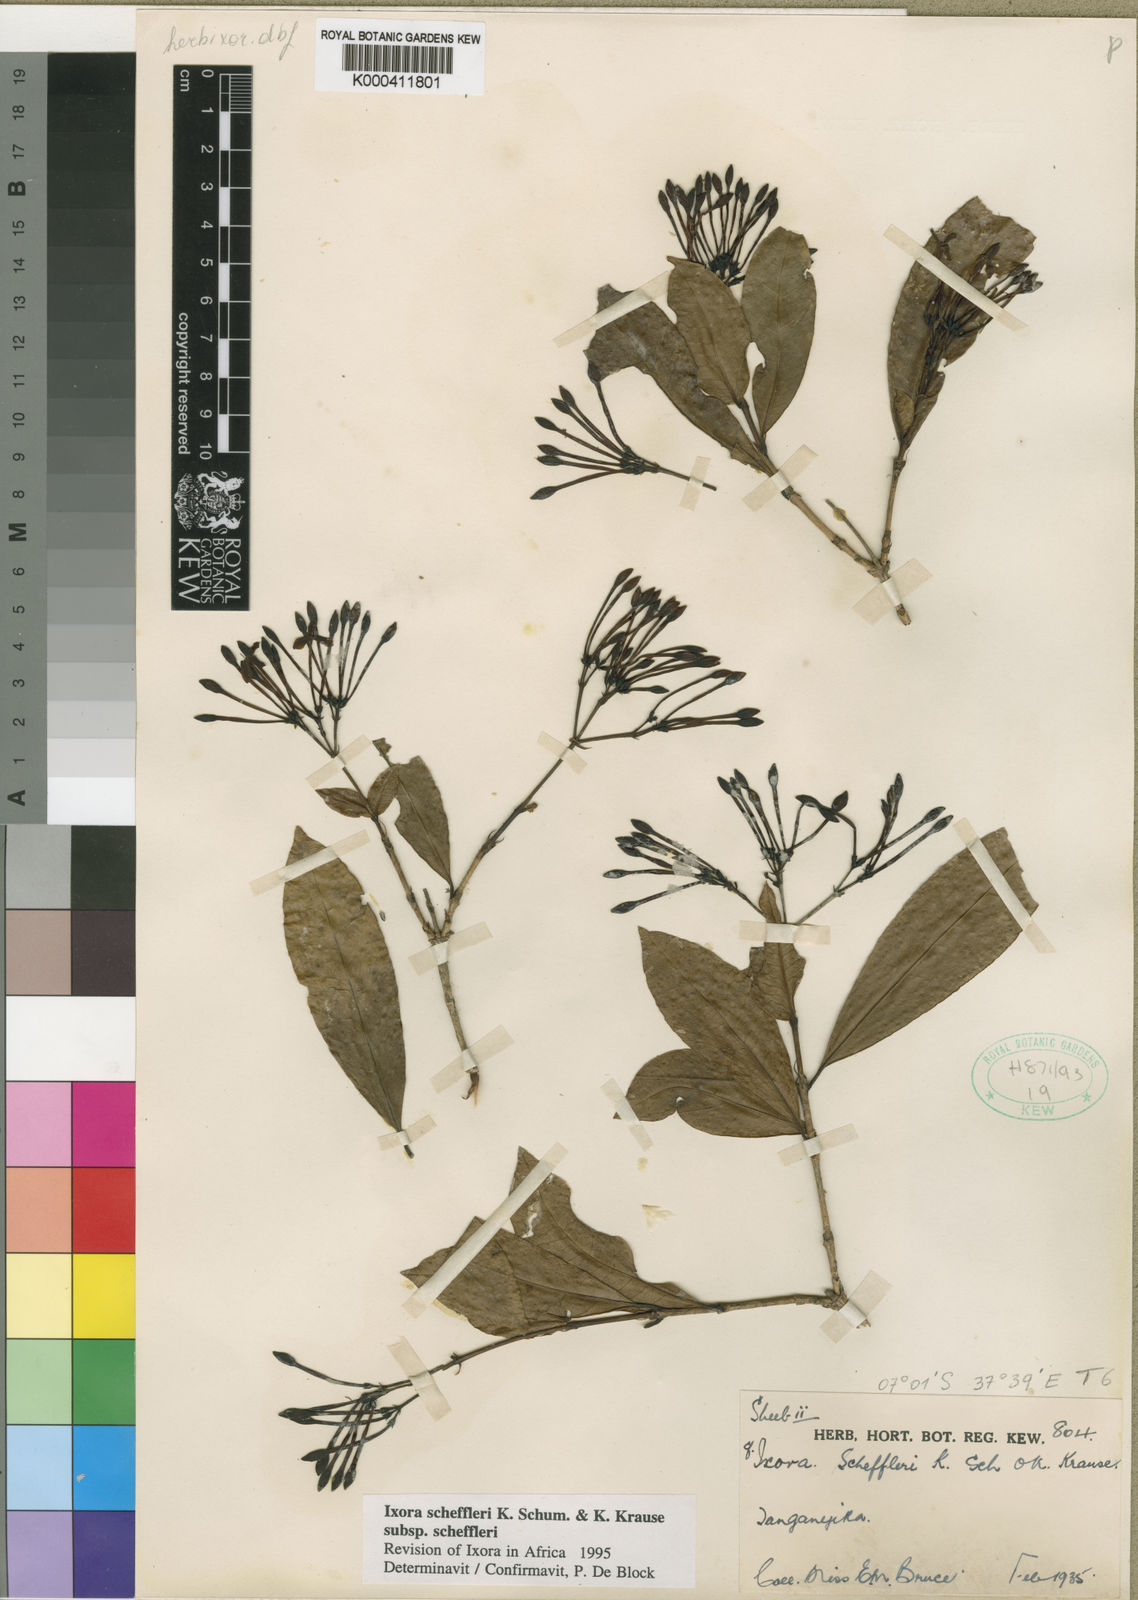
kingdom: Plantae
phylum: Tracheophyta
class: Magnoliopsida
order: Gentianales
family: Rubiaceae
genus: Ixora
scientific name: Ixora scheffleri
